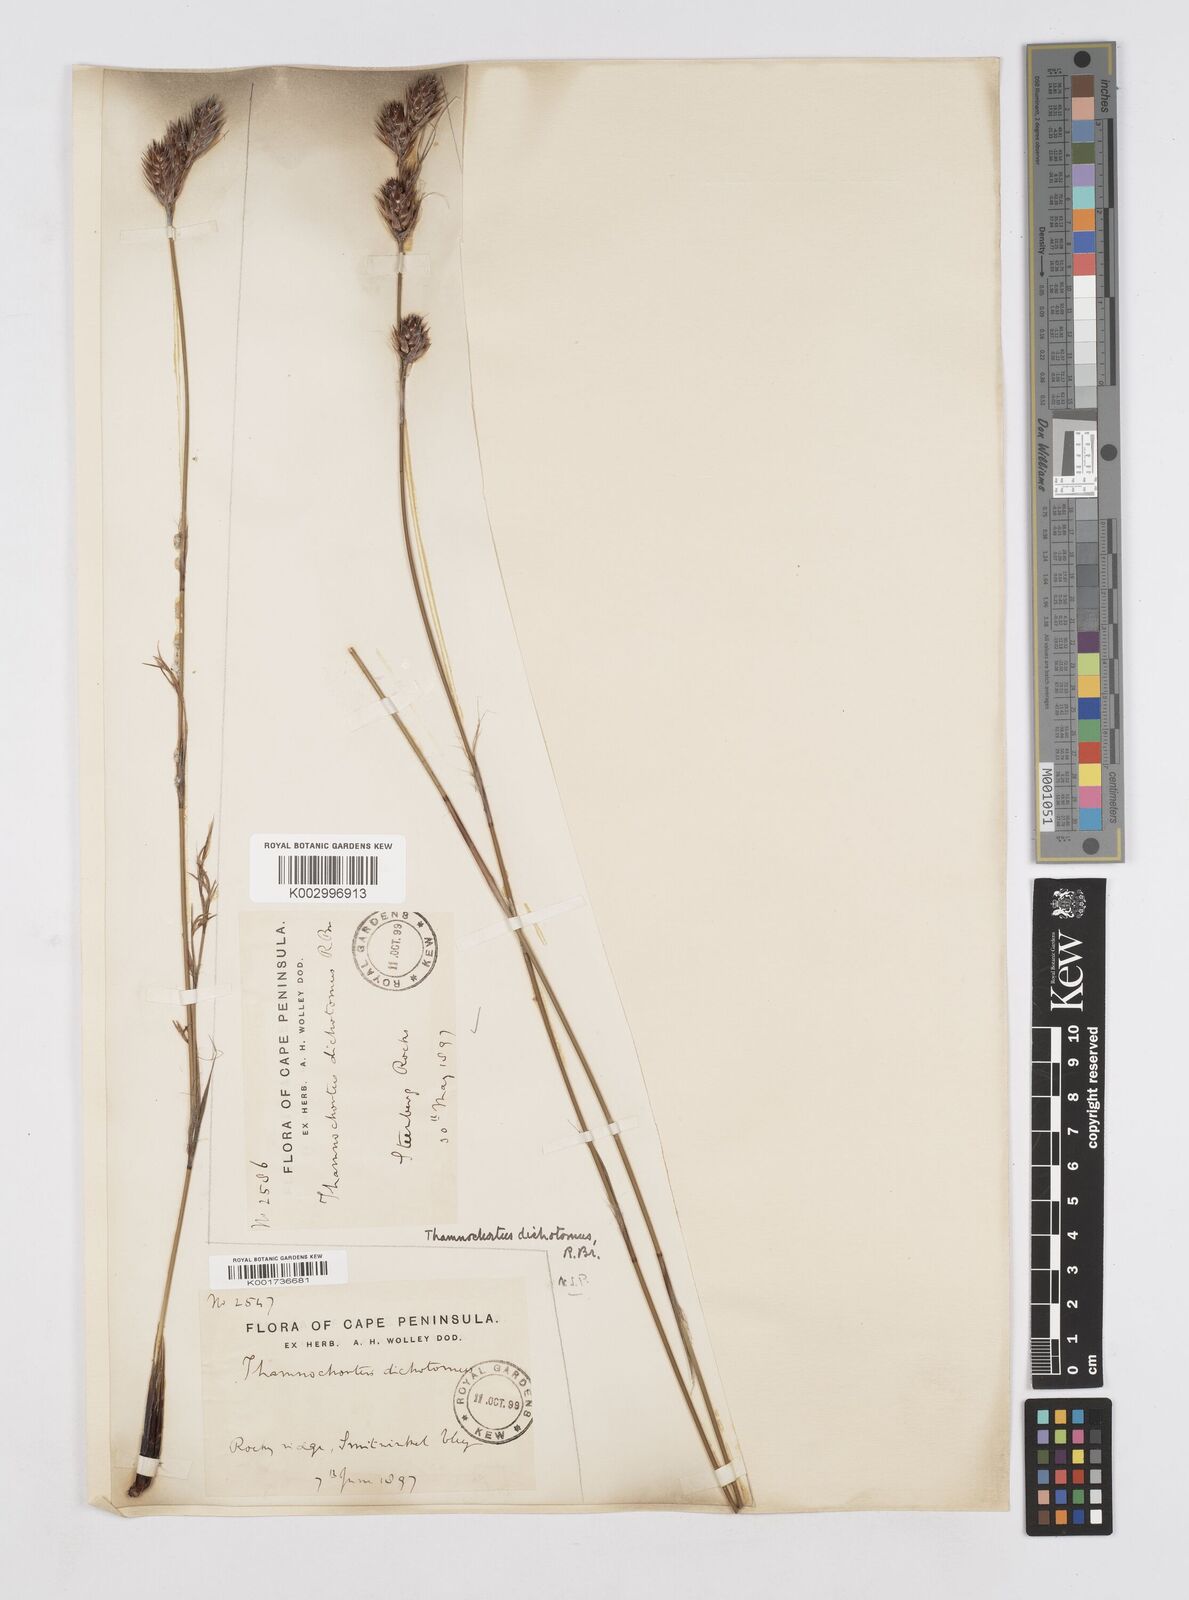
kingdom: Plantae
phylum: Tracheophyta
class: Liliopsida
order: Poales
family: Restionaceae
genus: Thamnochortus
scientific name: Thamnochortus lucens
